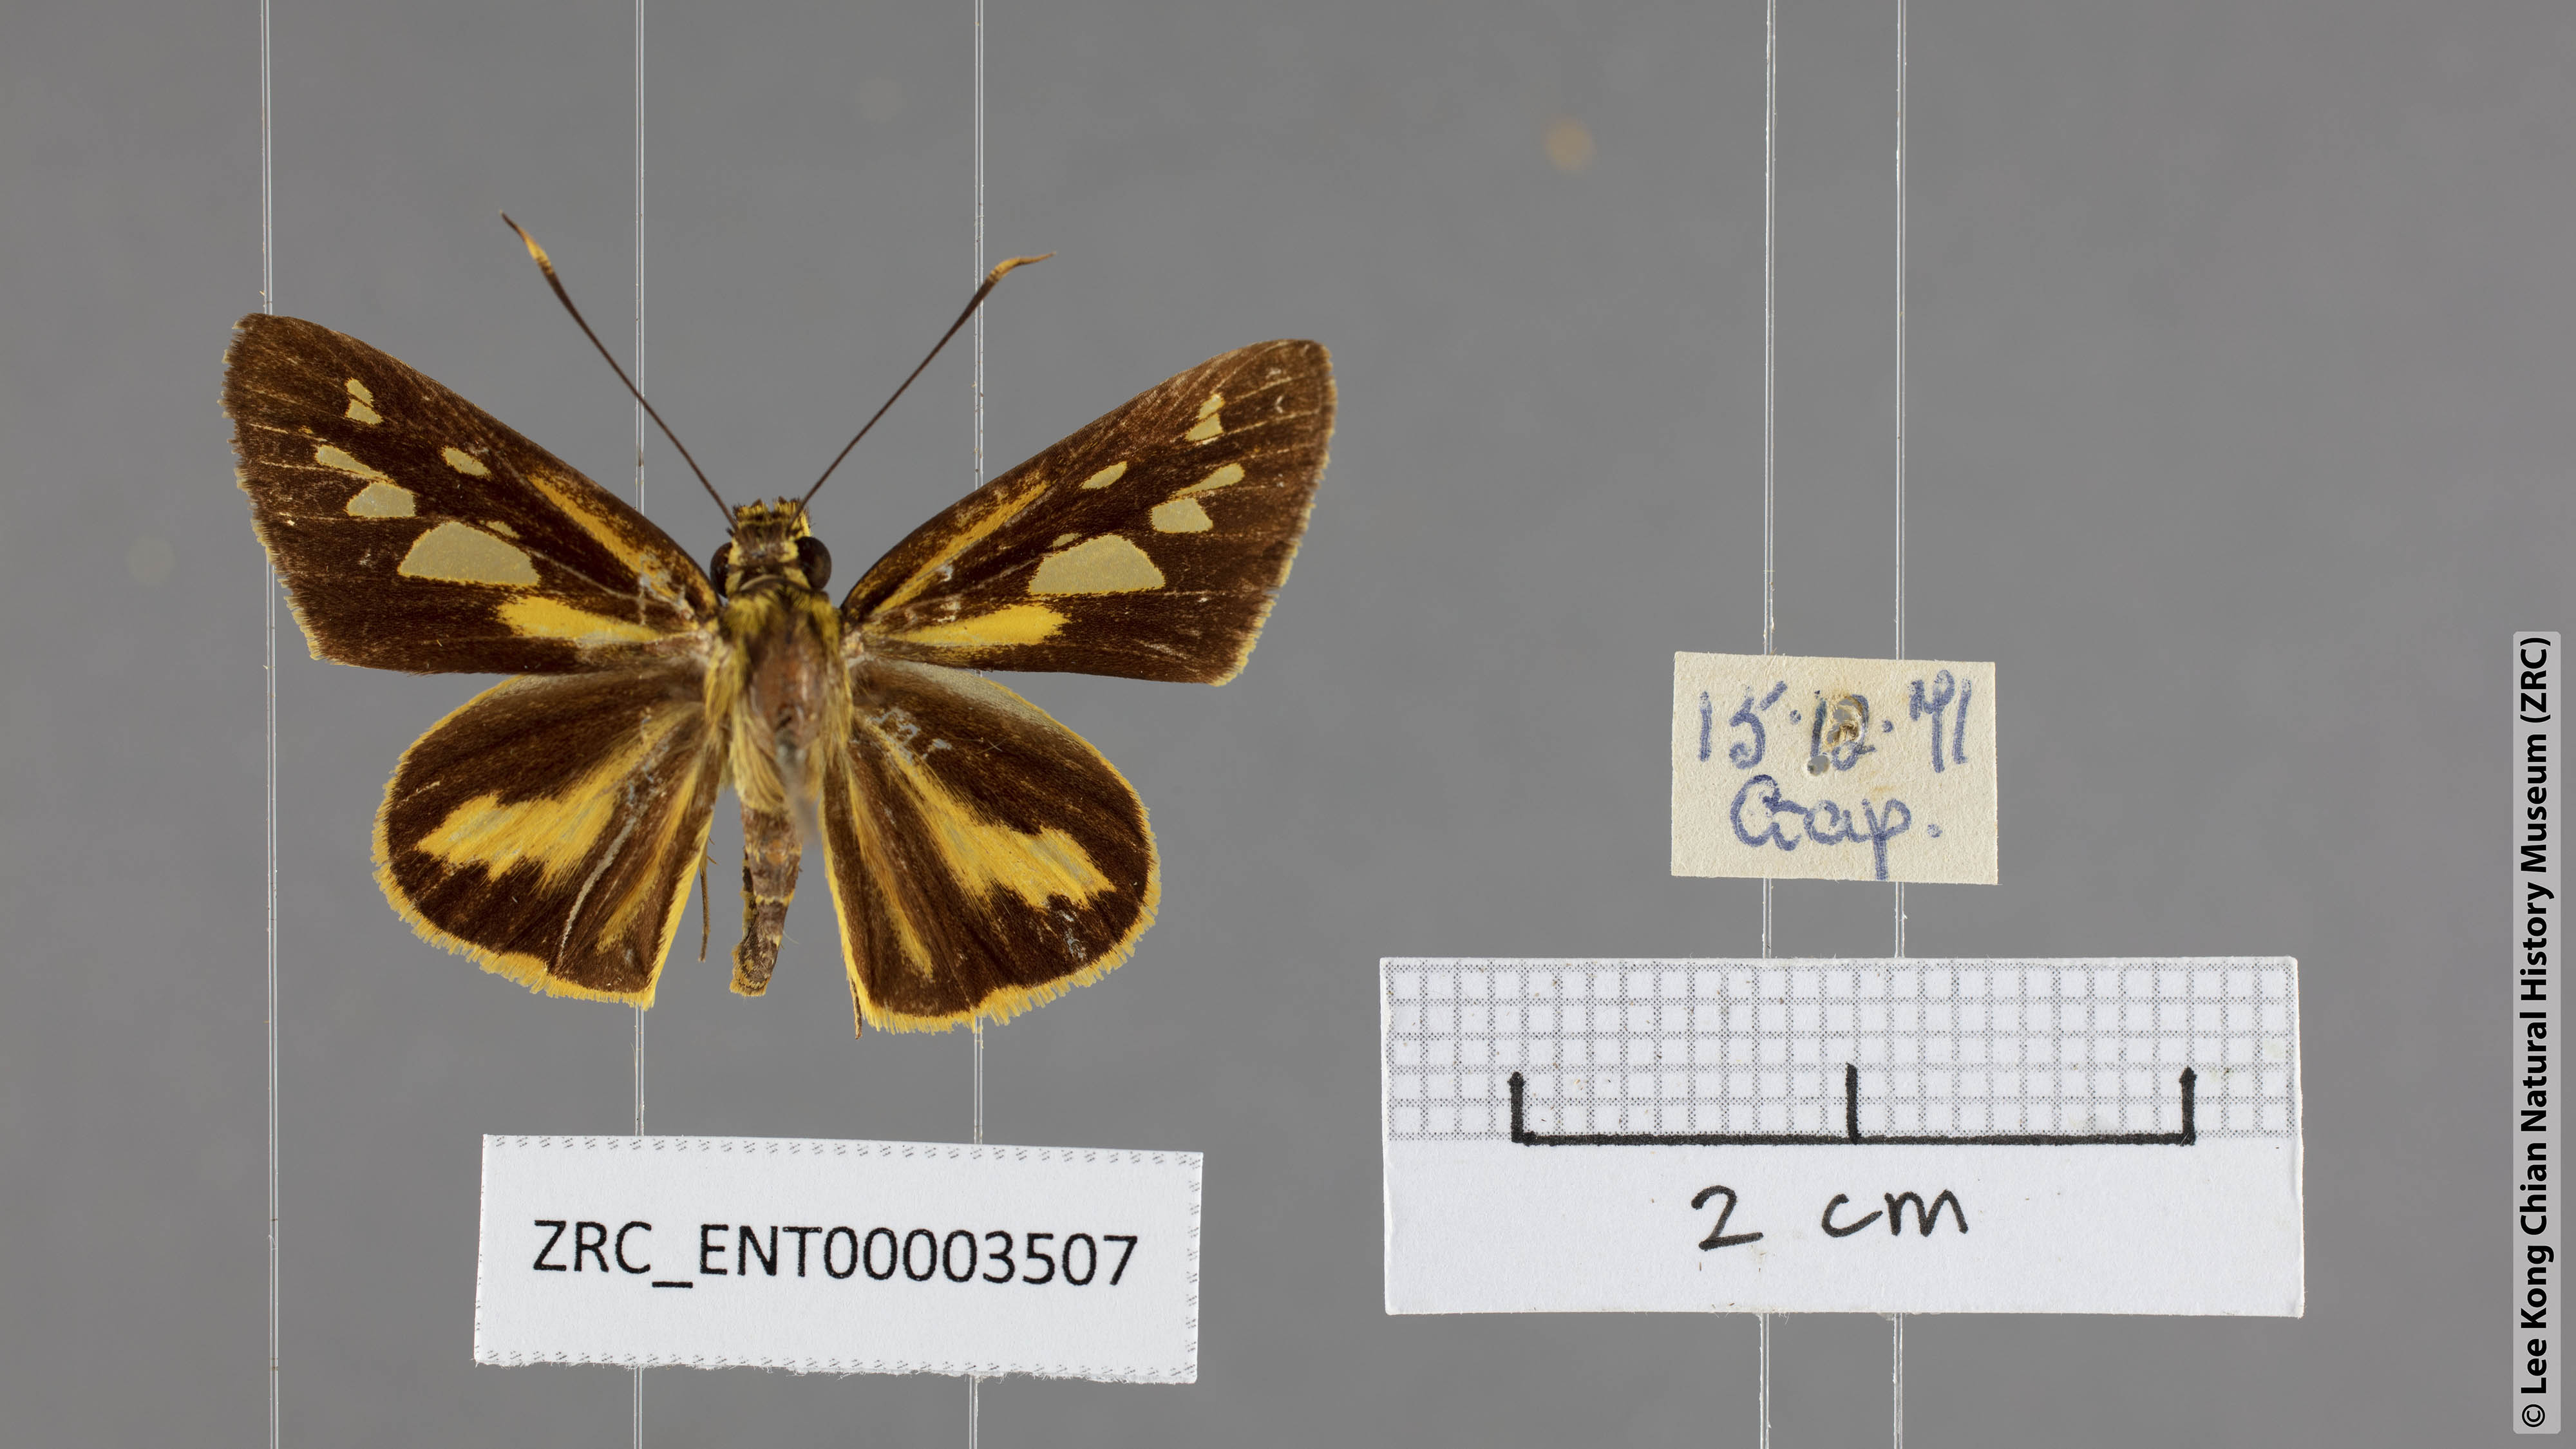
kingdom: Animalia
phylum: Arthropoda
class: Insecta
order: Lepidoptera
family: Hesperiidae
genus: Pyroneura
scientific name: Pyroneura flavia
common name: Lesser lancer
